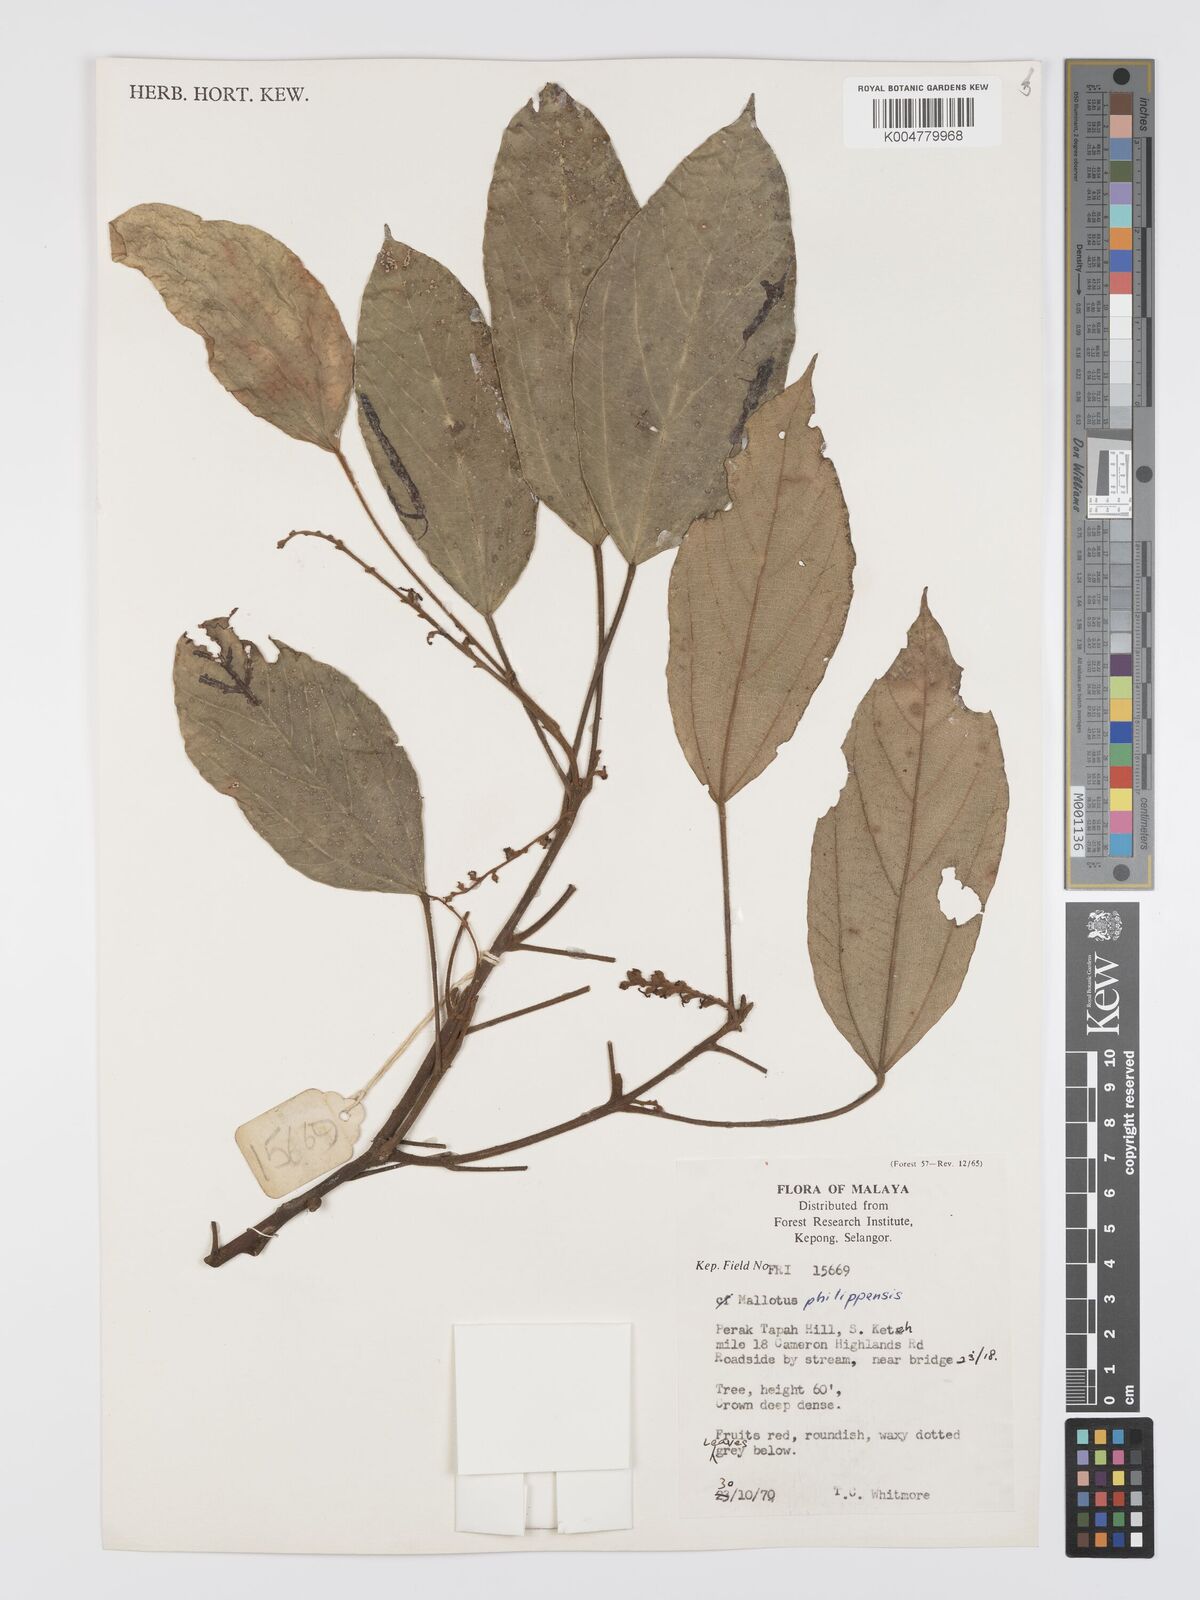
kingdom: Plantae
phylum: Tracheophyta
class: Magnoliopsida
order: Malpighiales
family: Euphorbiaceae
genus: Mallotus
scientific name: Mallotus philippensis
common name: Kamala tree
